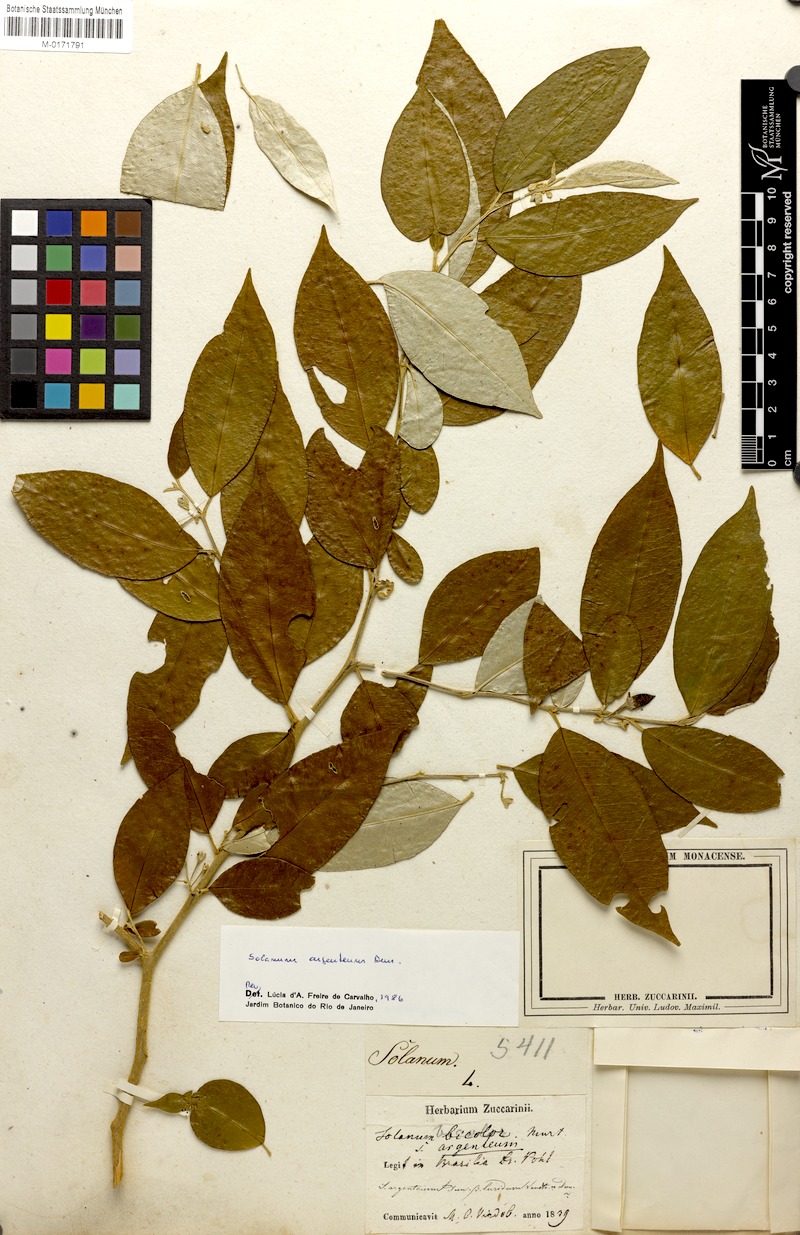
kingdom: Plantae
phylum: Tracheophyta
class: Magnoliopsida
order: Solanales
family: Solanaceae
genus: Solanum
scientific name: Solanum argenteum
